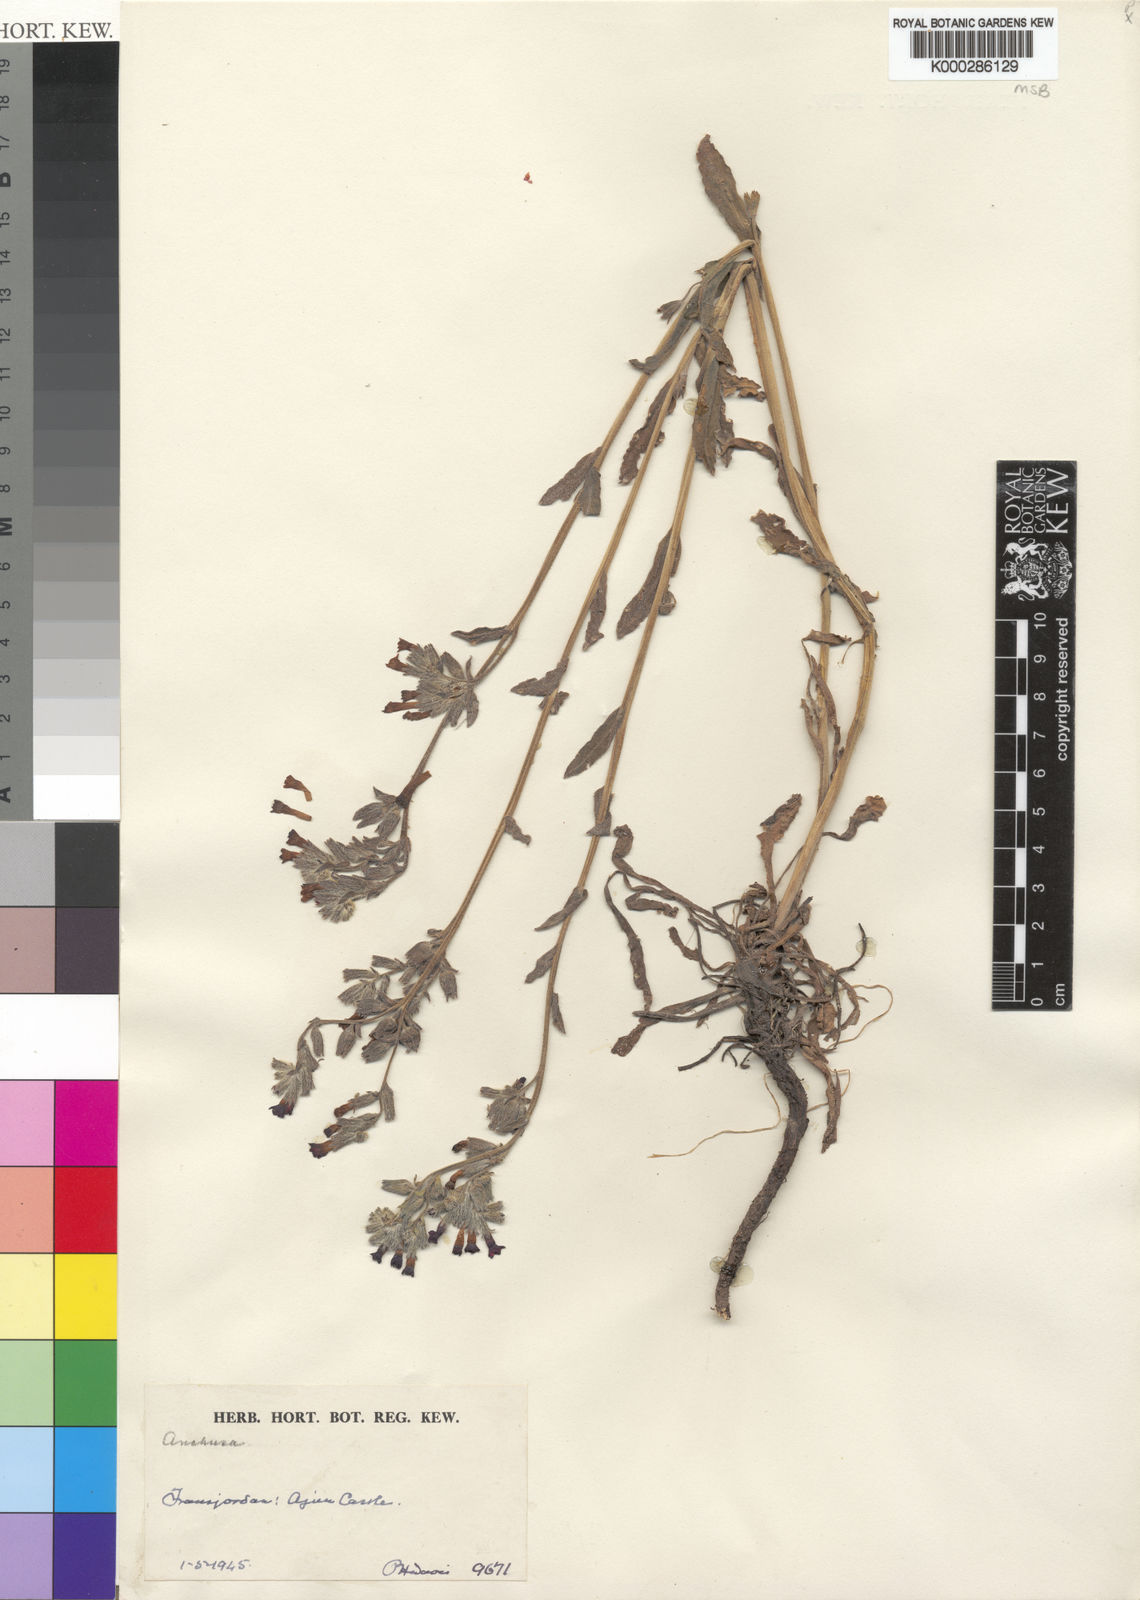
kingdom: Plantae
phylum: Tracheophyta
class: Magnoliopsida
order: Boraginales
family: Boraginaceae
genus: Anchusa
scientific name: Anchusa undulata
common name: Undulate alkanet
